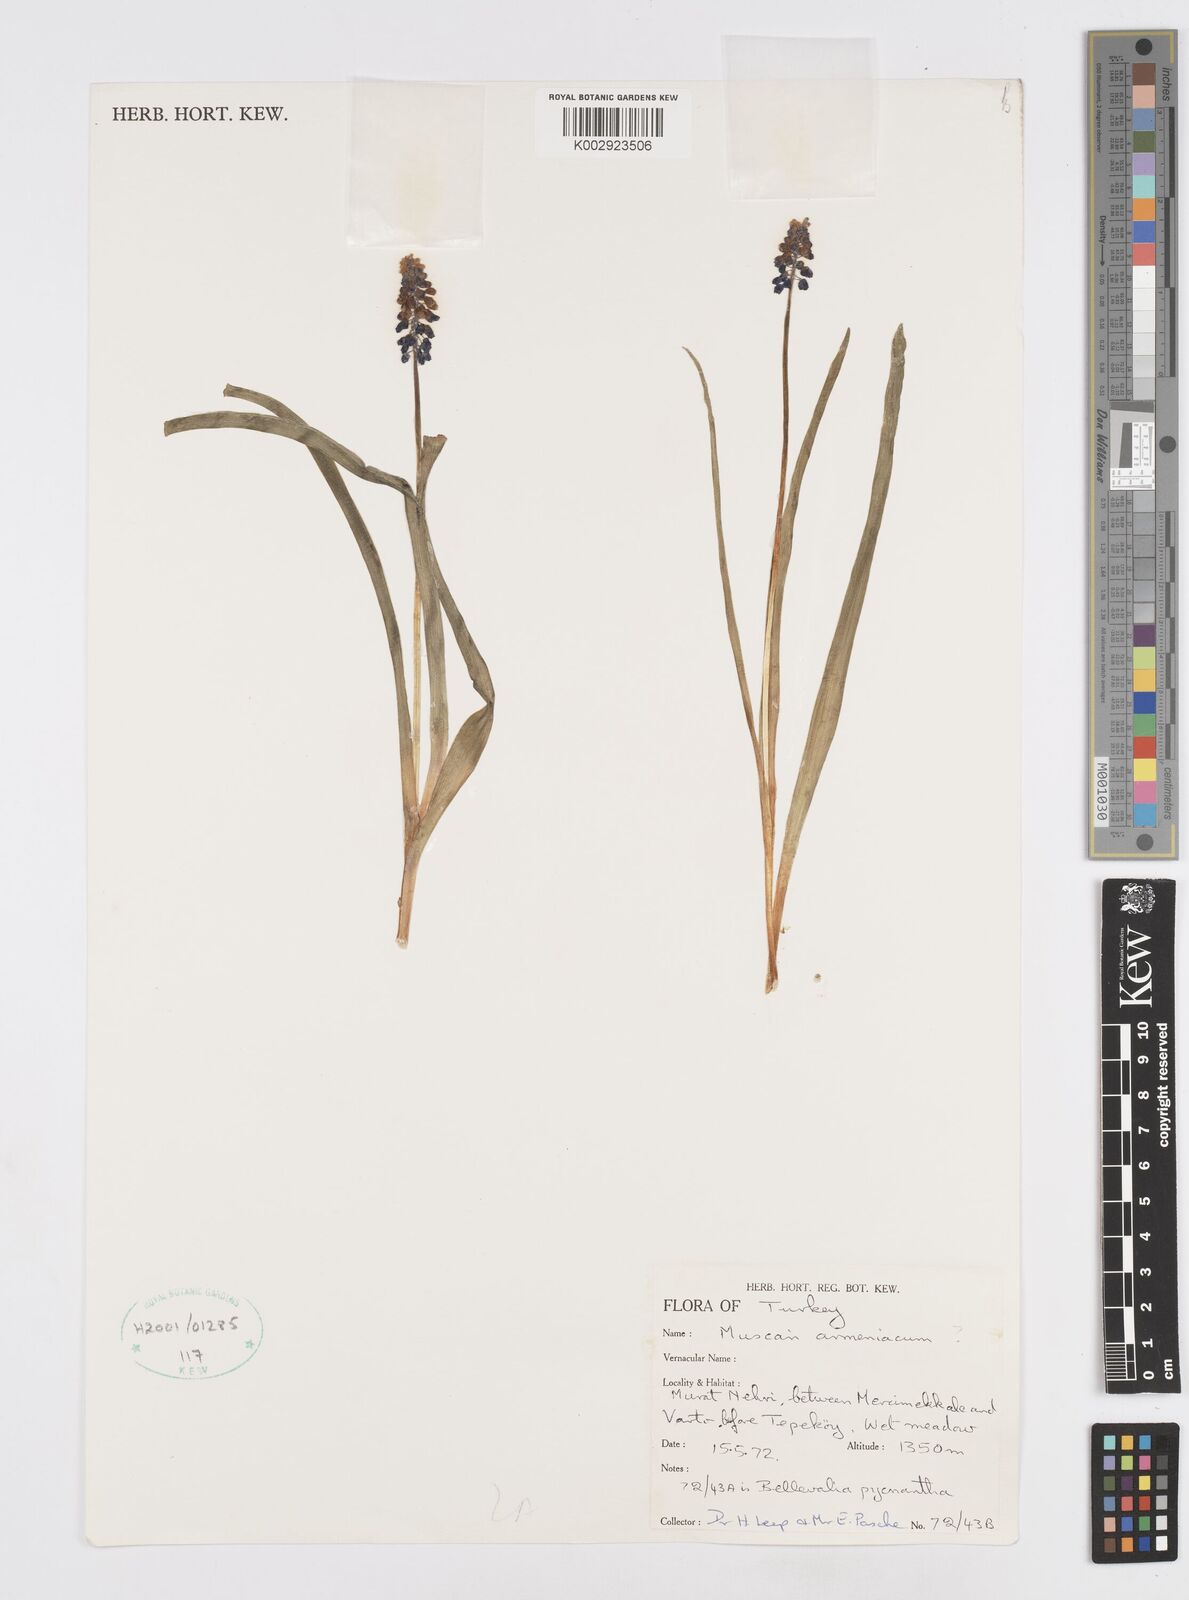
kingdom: Plantae
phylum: Tracheophyta
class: Liliopsida
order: Asparagales
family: Asparagaceae
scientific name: Asparagaceae
